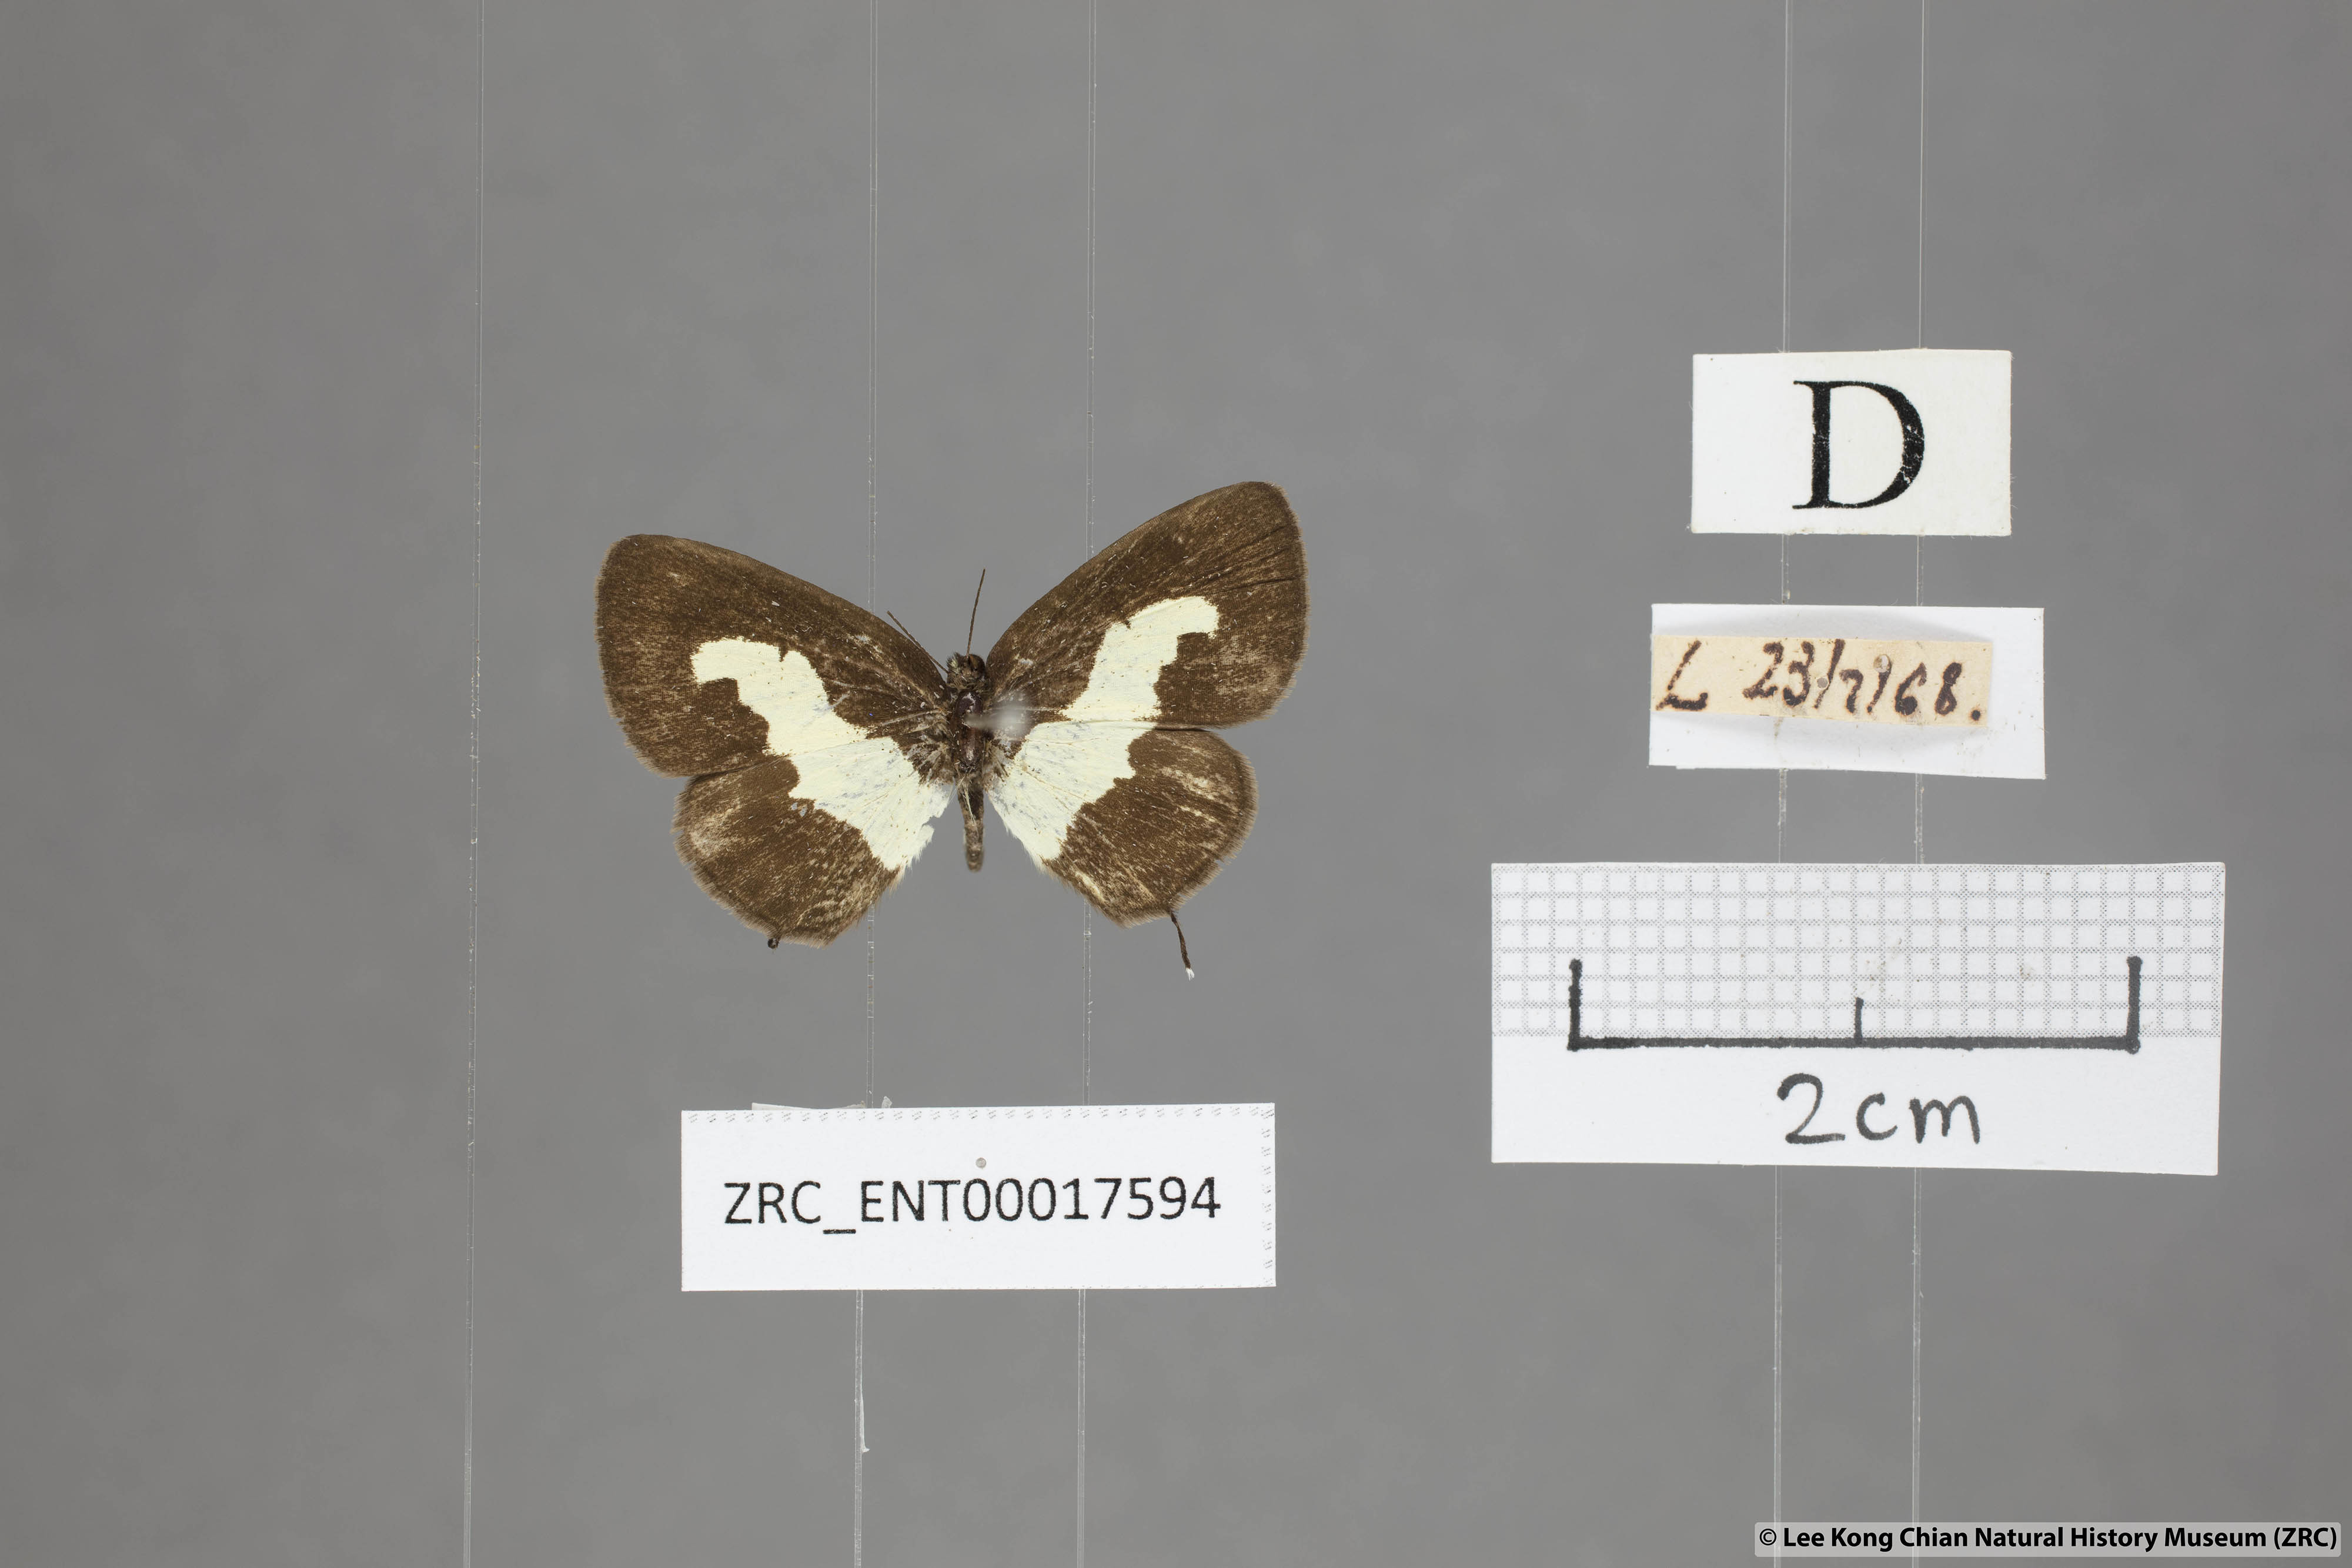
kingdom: Animalia
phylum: Arthropoda
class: Insecta
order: Lepidoptera
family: Lycaenidae
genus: Caleta
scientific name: Caleta roxus
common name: Straight pierrot
